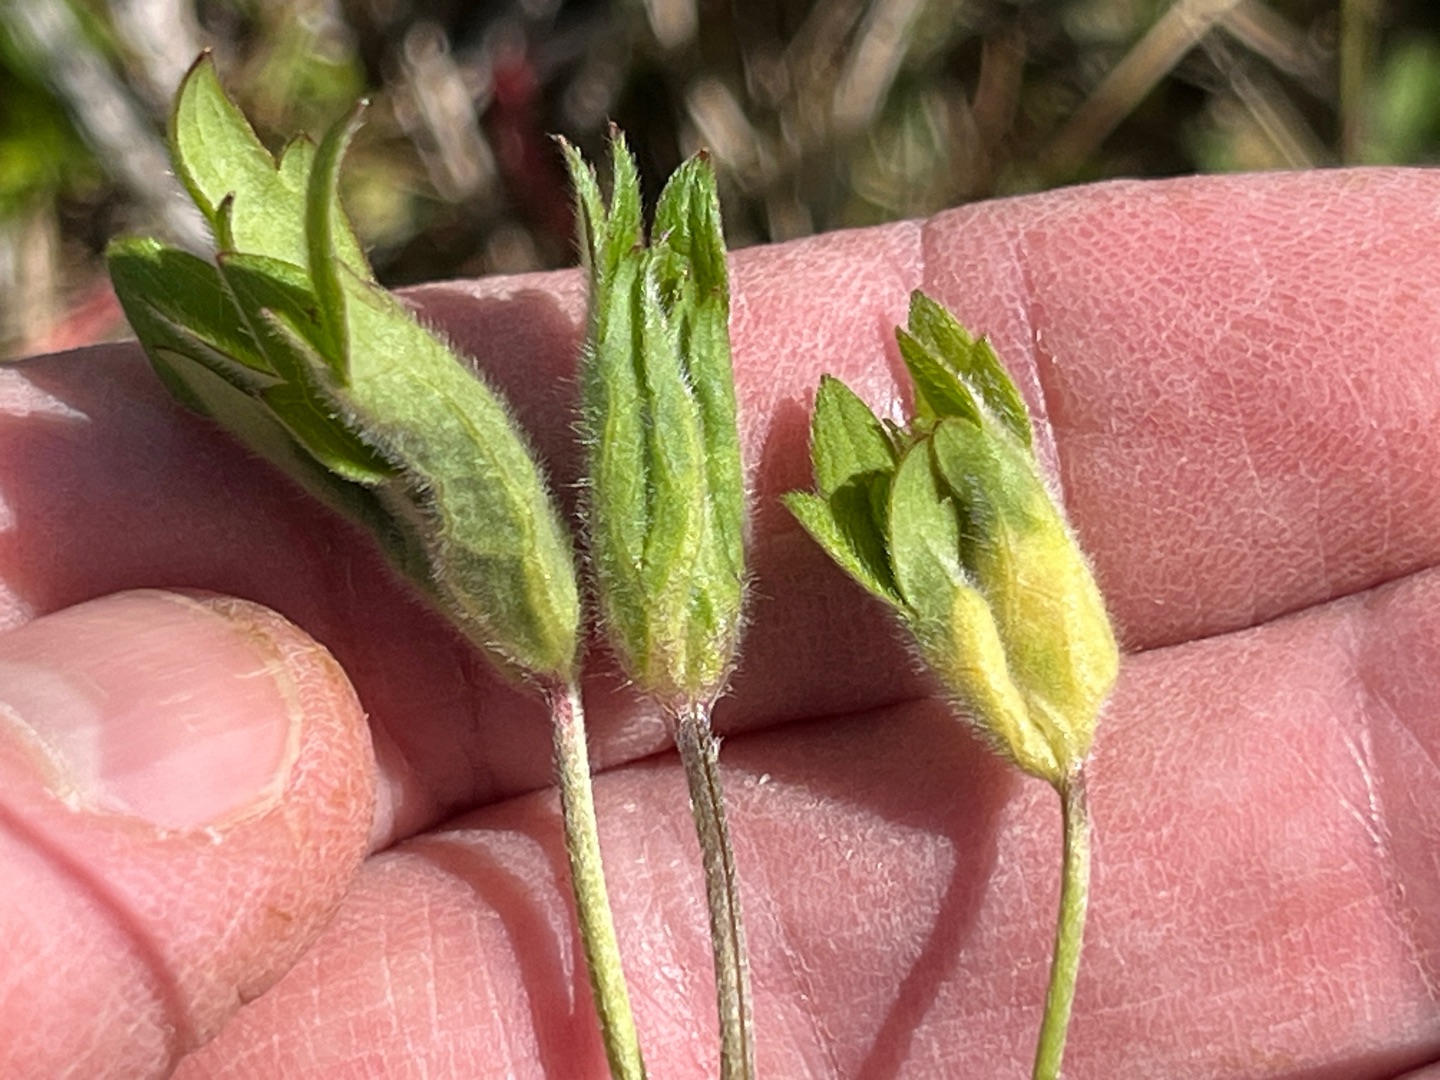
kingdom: Animalia
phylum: Arthropoda
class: Insecta
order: Diptera
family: Cecidomyiidae
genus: Dasineura
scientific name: Dasineura ranunculi
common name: Ranunkelbladgalmyg
